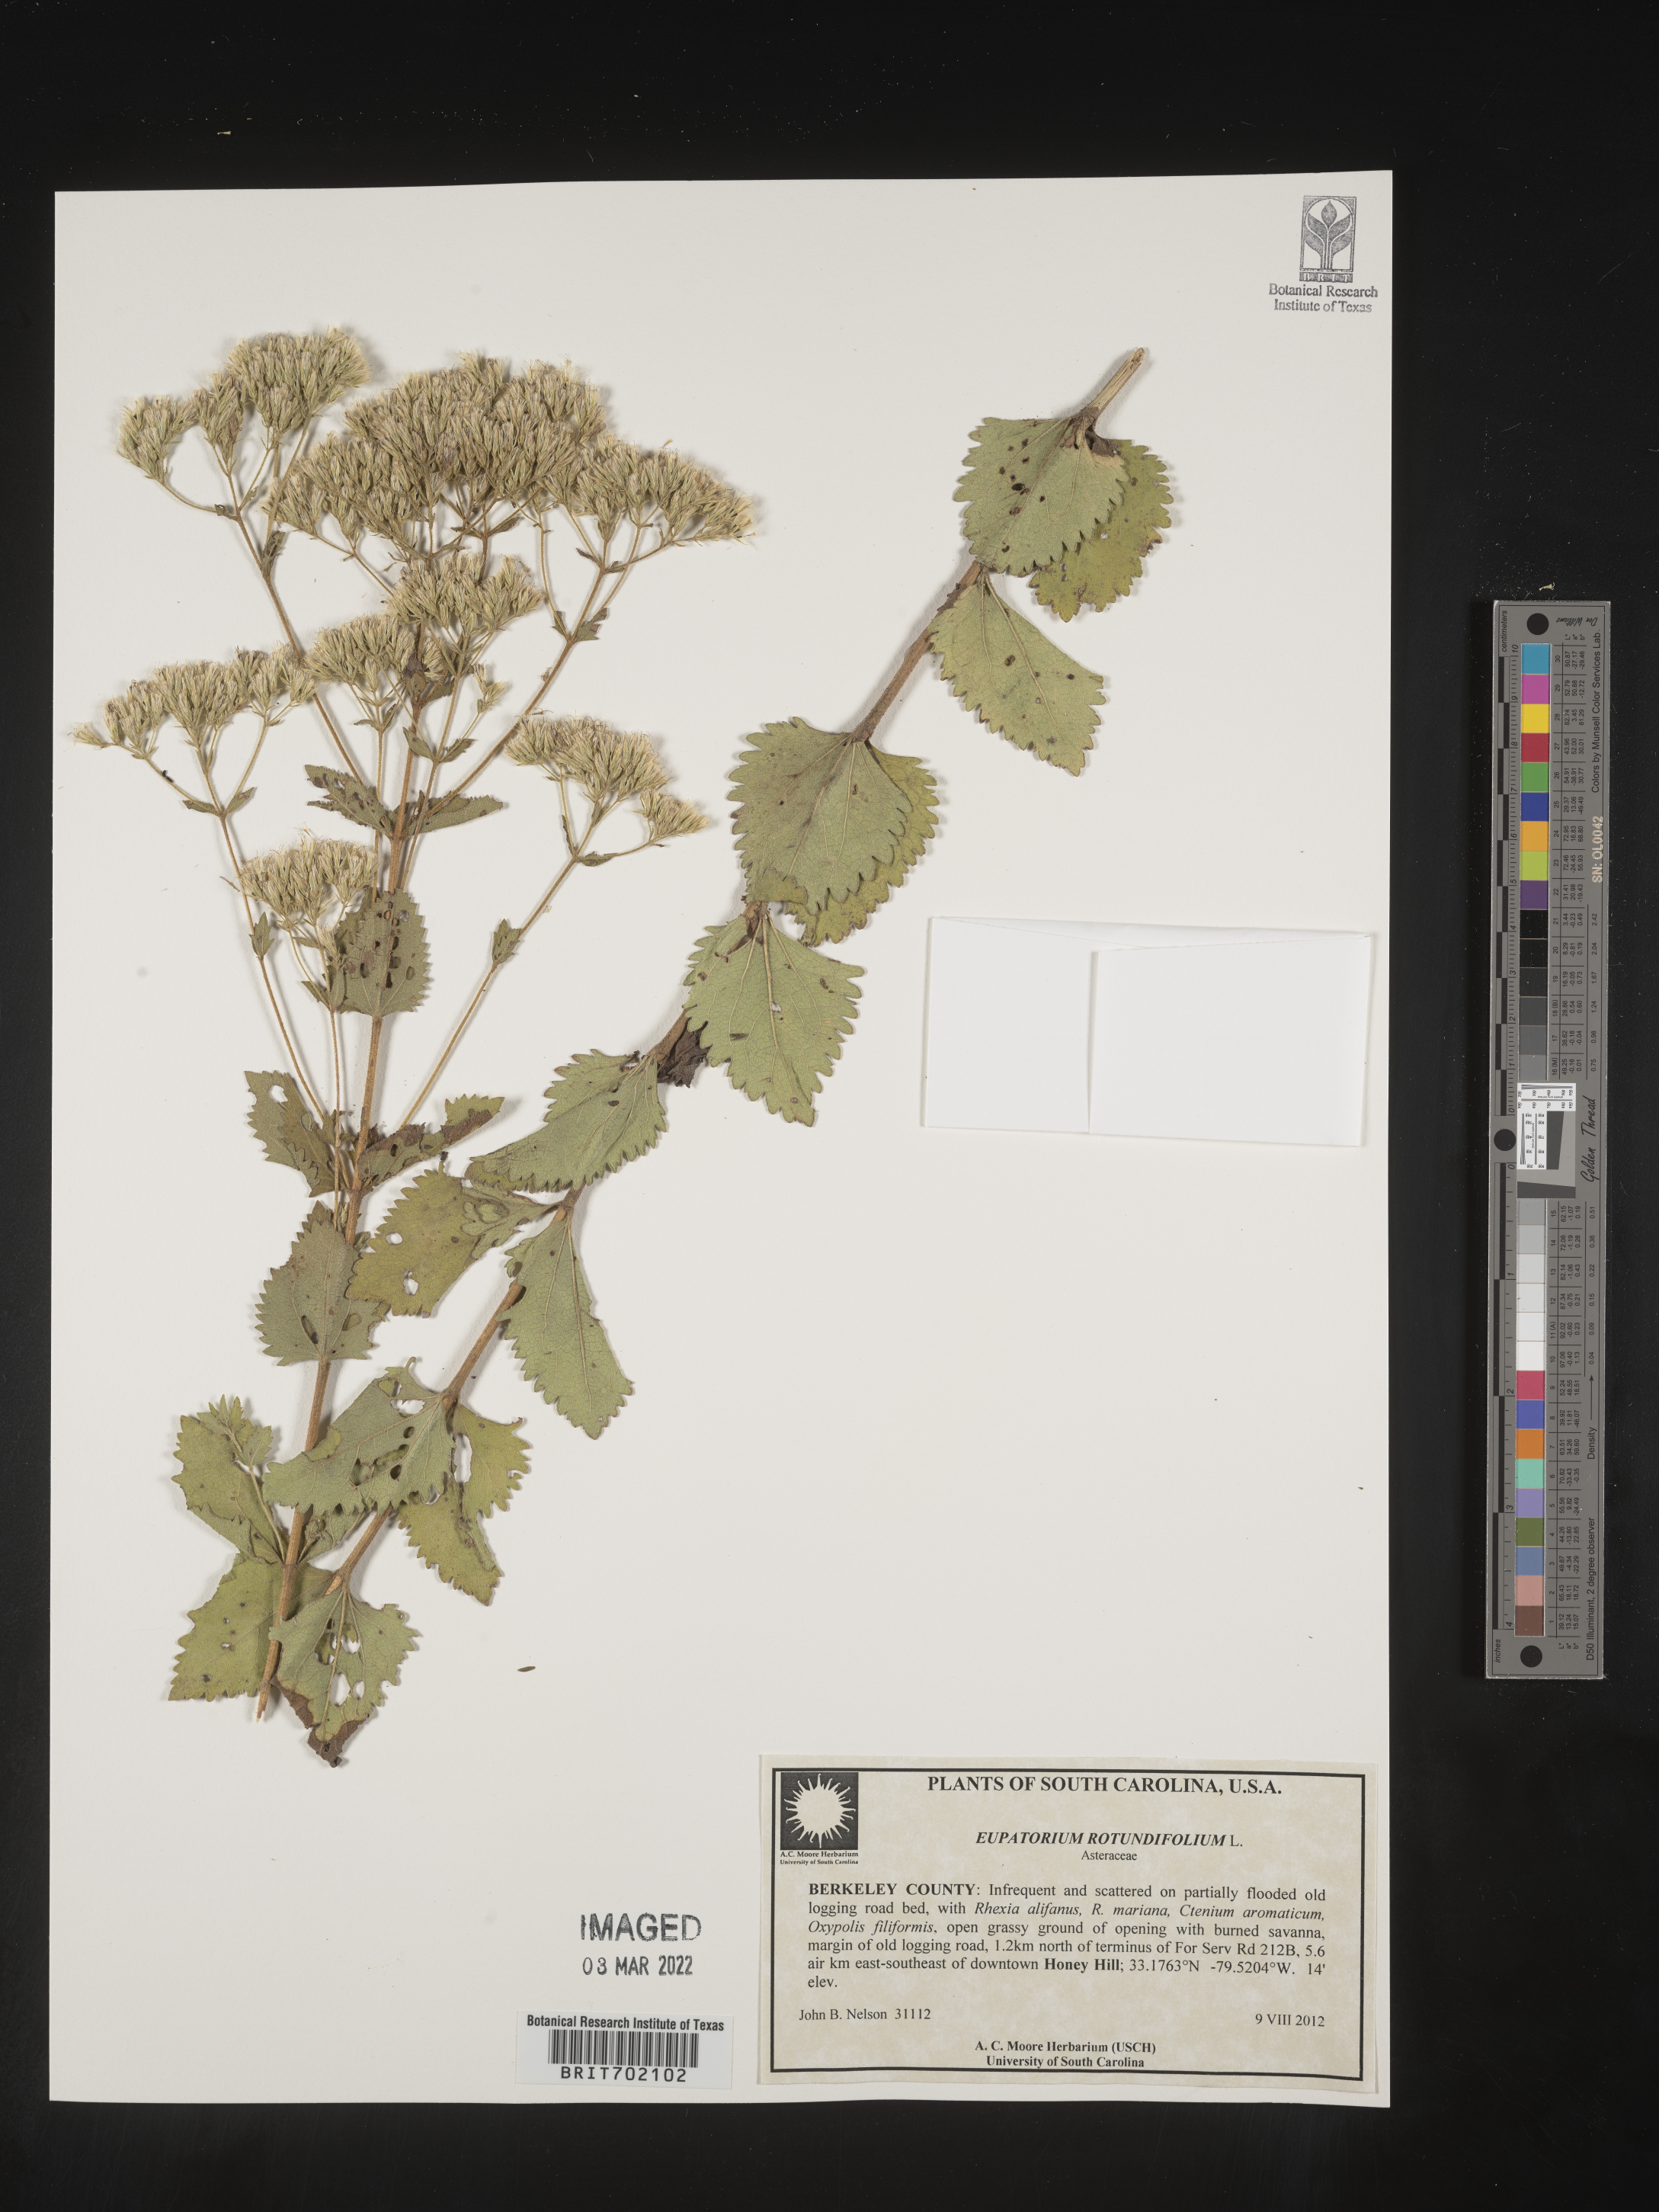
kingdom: Plantae
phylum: Tracheophyta
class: Magnoliopsida
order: Asterales
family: Asteraceae
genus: Eupatorium
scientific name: Eupatorium rotundifolium
